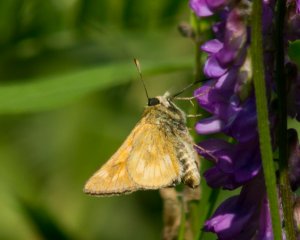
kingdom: Animalia
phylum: Arthropoda
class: Insecta
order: Lepidoptera
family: Hesperiidae
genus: Polites
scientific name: Polites
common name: Long Dash Skipper
